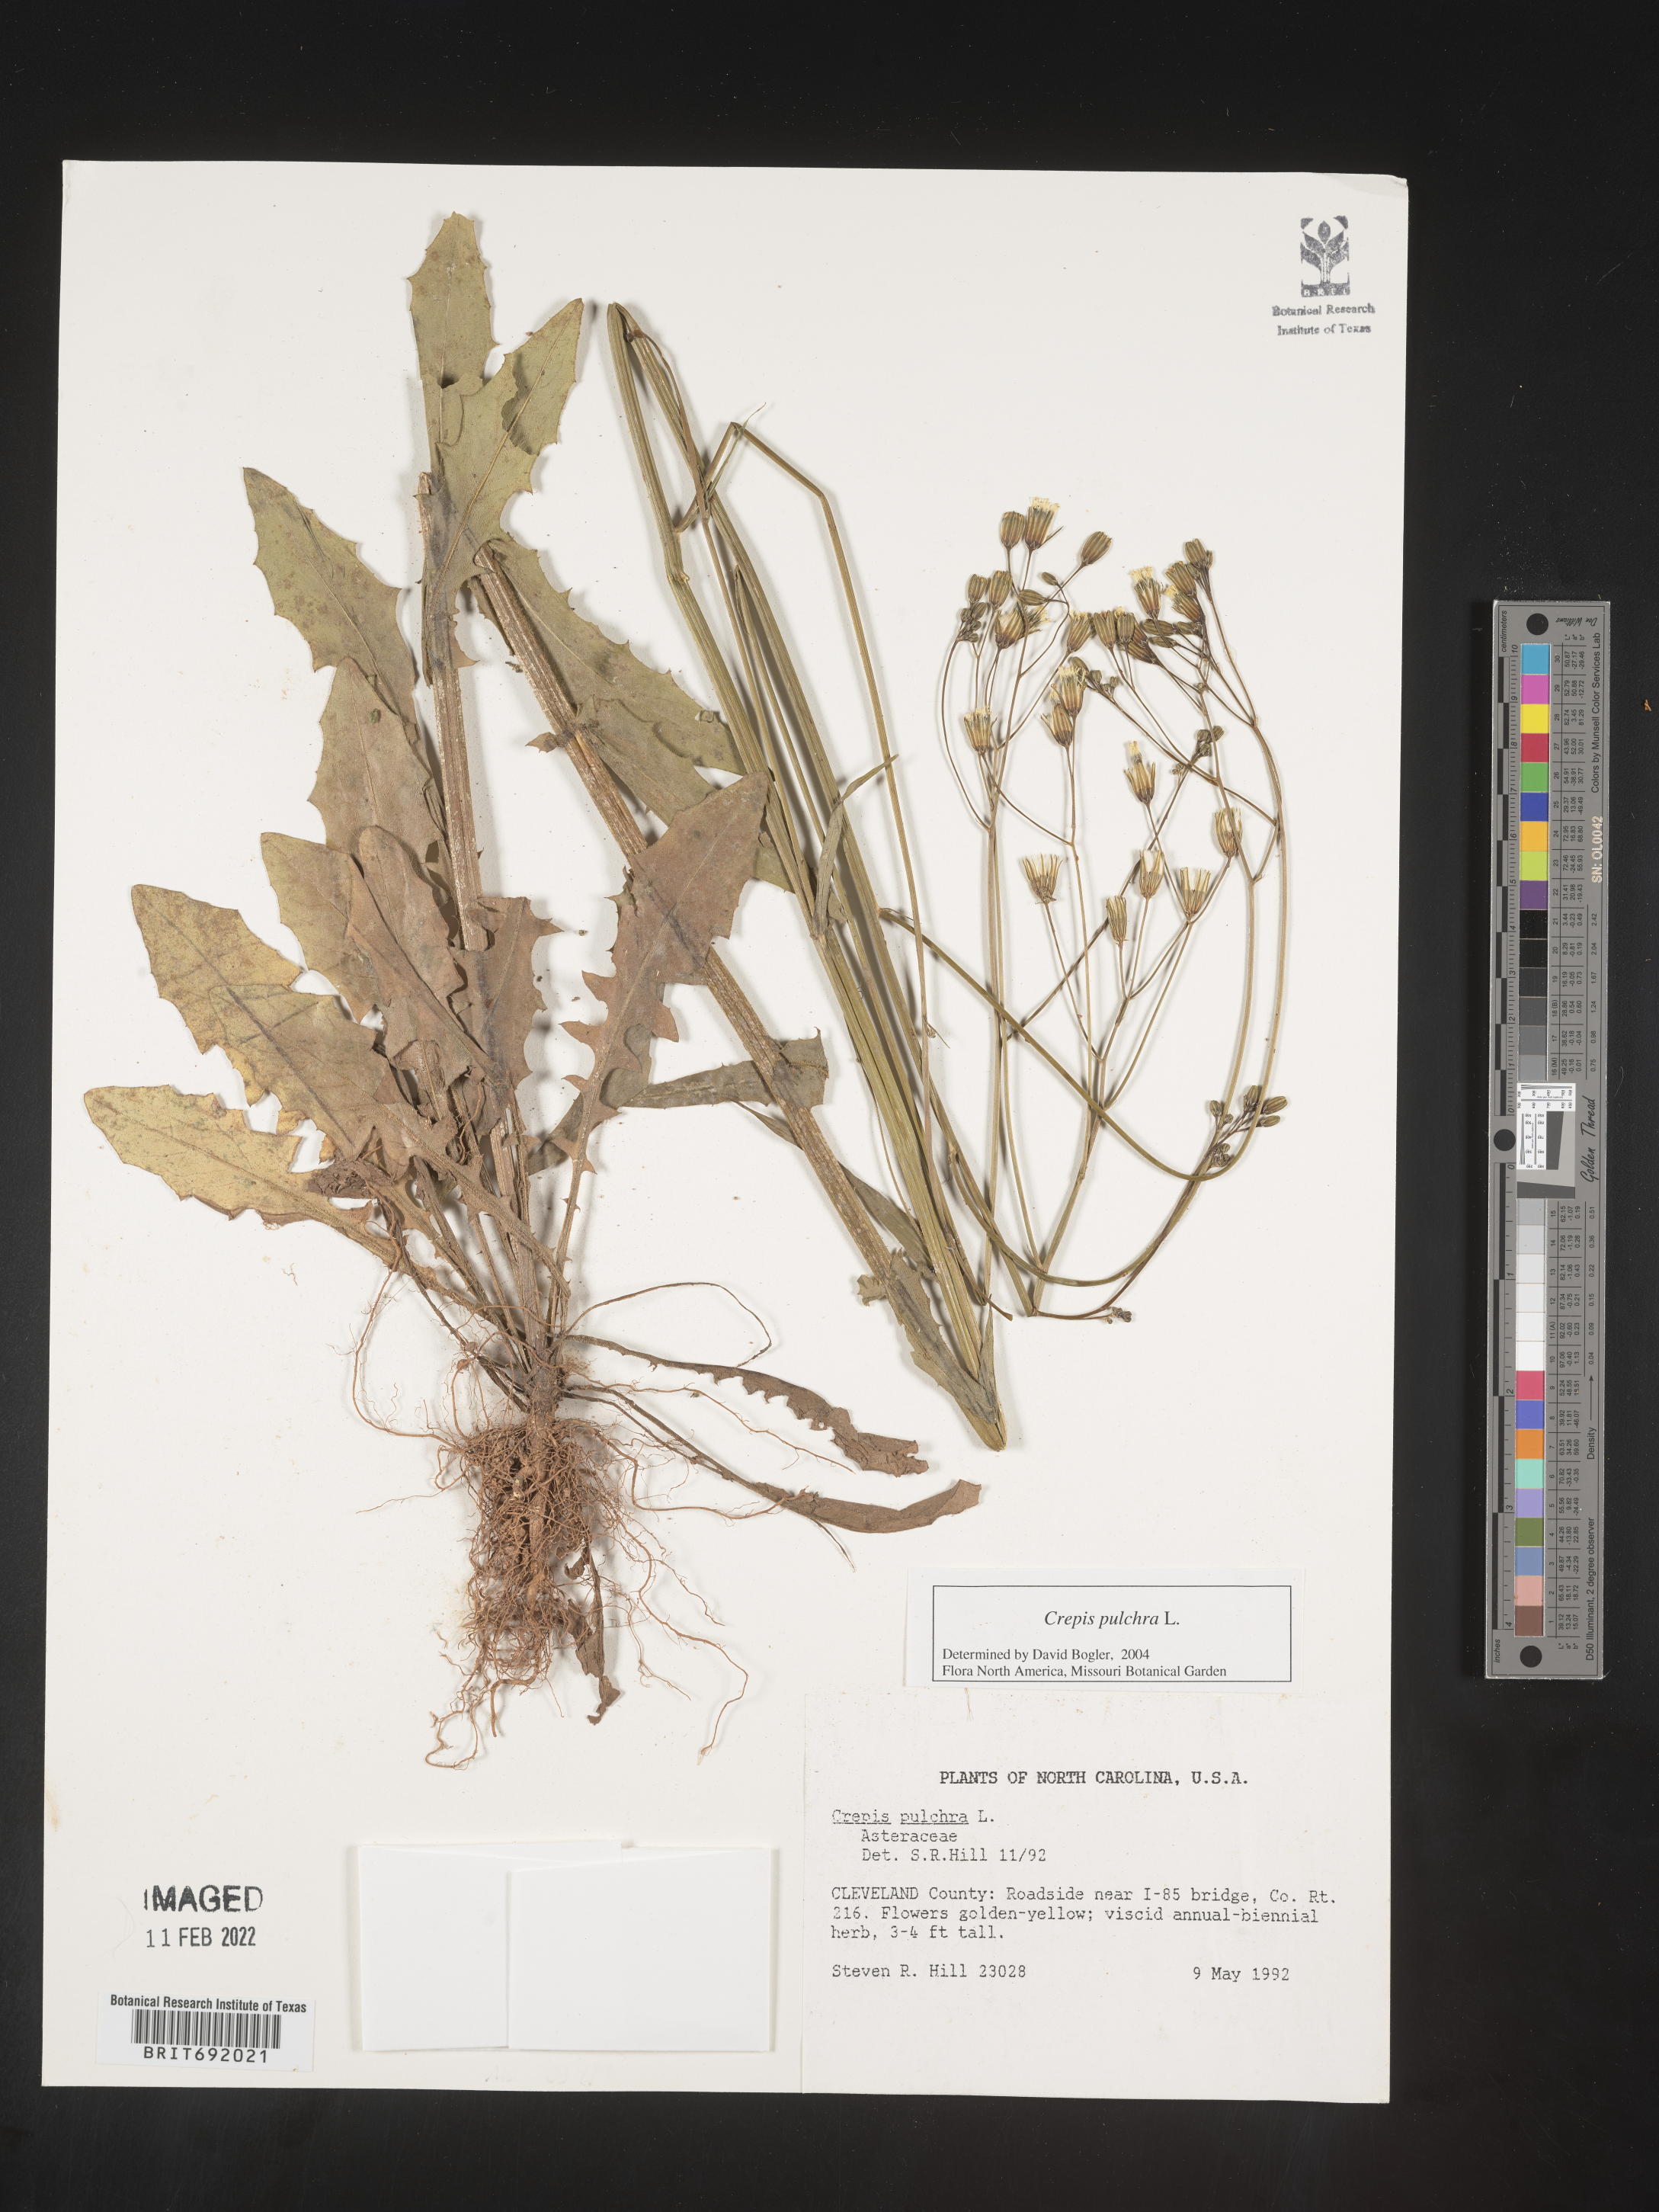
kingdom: Plantae
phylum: Tracheophyta
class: Magnoliopsida
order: Asterales
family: Asteraceae
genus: Crepis
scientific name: Crepis pulchra
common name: Hawk's-beard
